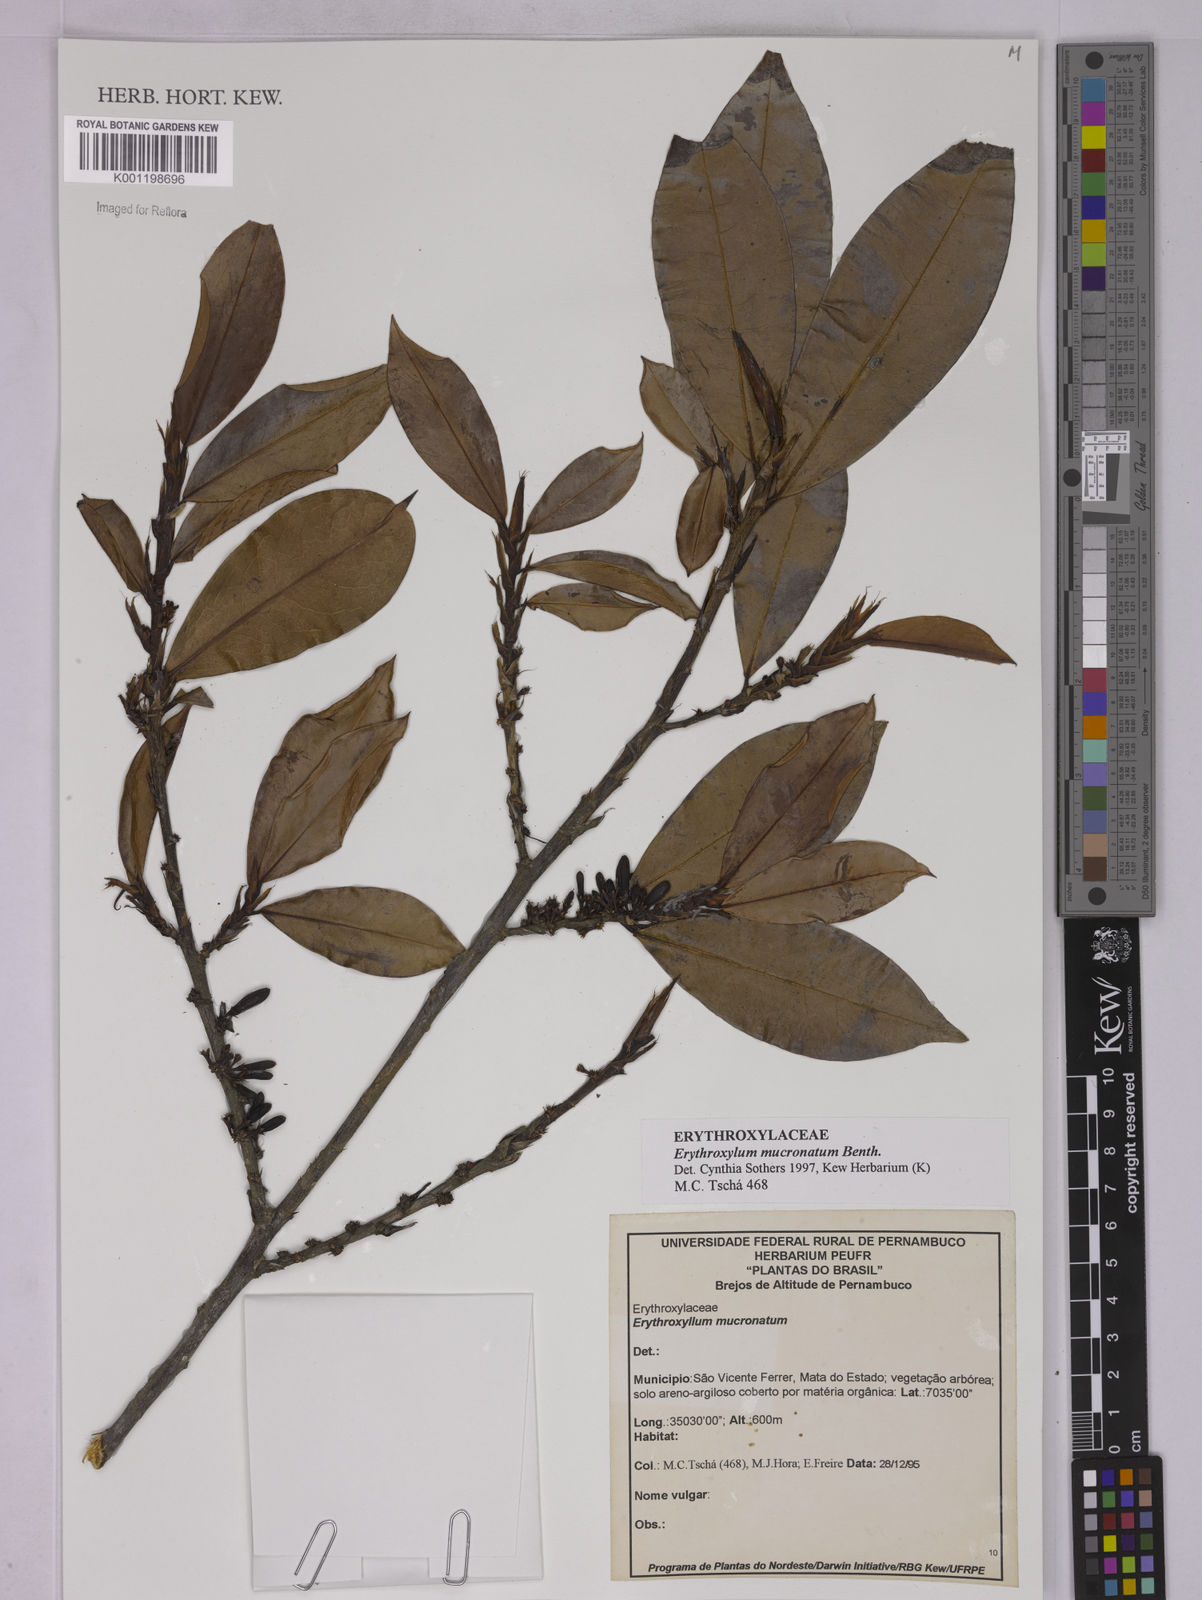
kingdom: Plantae
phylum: Tracheophyta
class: Magnoliopsida
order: Malpighiales
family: Erythroxylaceae
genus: Erythroxylum
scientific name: Erythroxylum mucronatum
